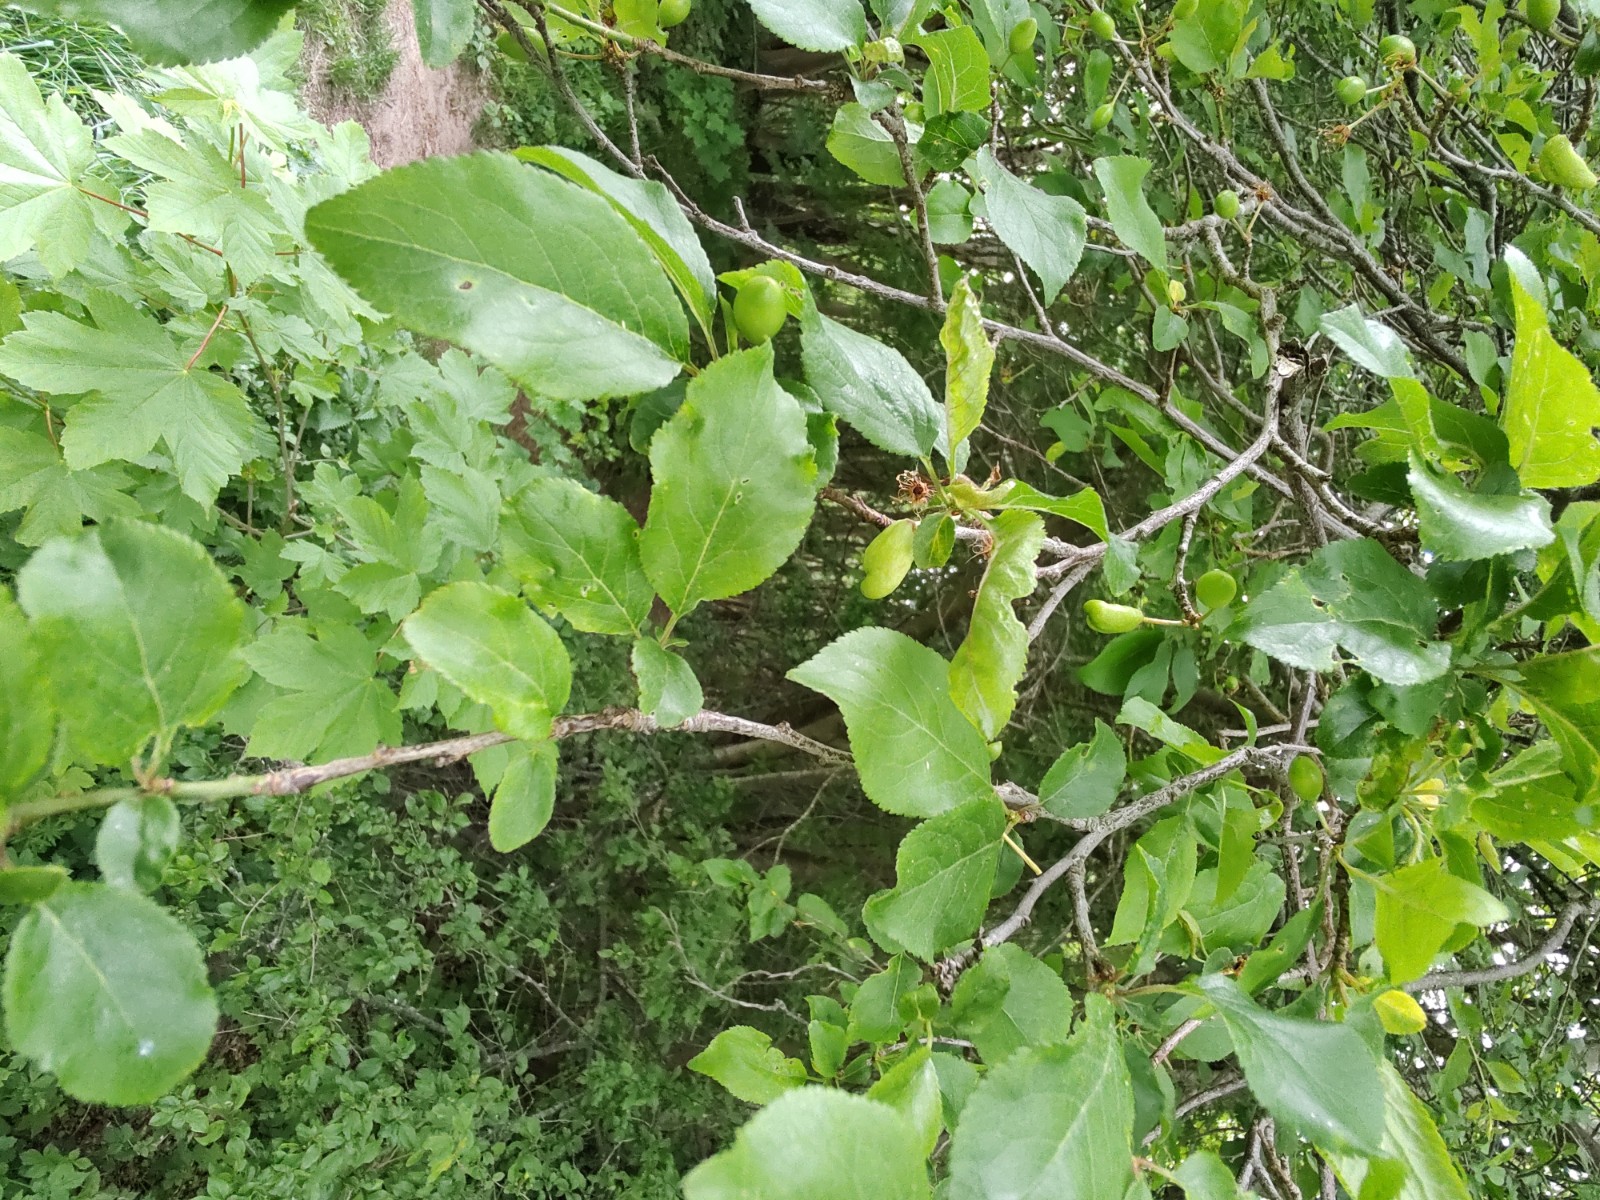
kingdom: Fungi
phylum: Ascomycota
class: Taphrinomycetes
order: Taphrinales
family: Taphrinaceae
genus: Taphrina
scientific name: Taphrina pruni
